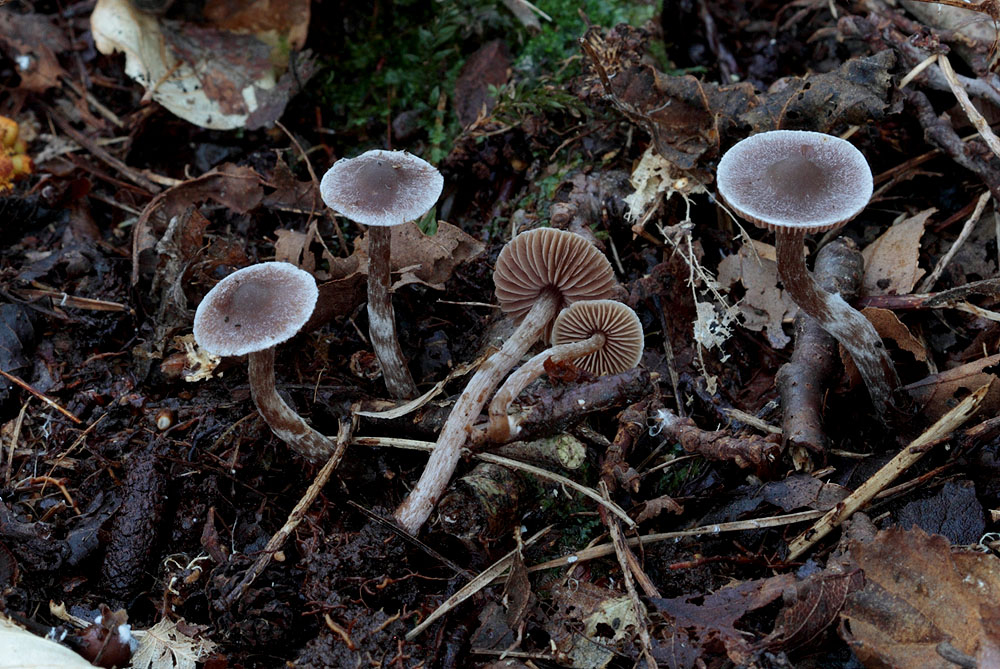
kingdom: Fungi
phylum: Basidiomycota
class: Agaricomycetes
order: Agaricales
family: Cortinariaceae
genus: Cortinarius
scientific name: Cortinarius
